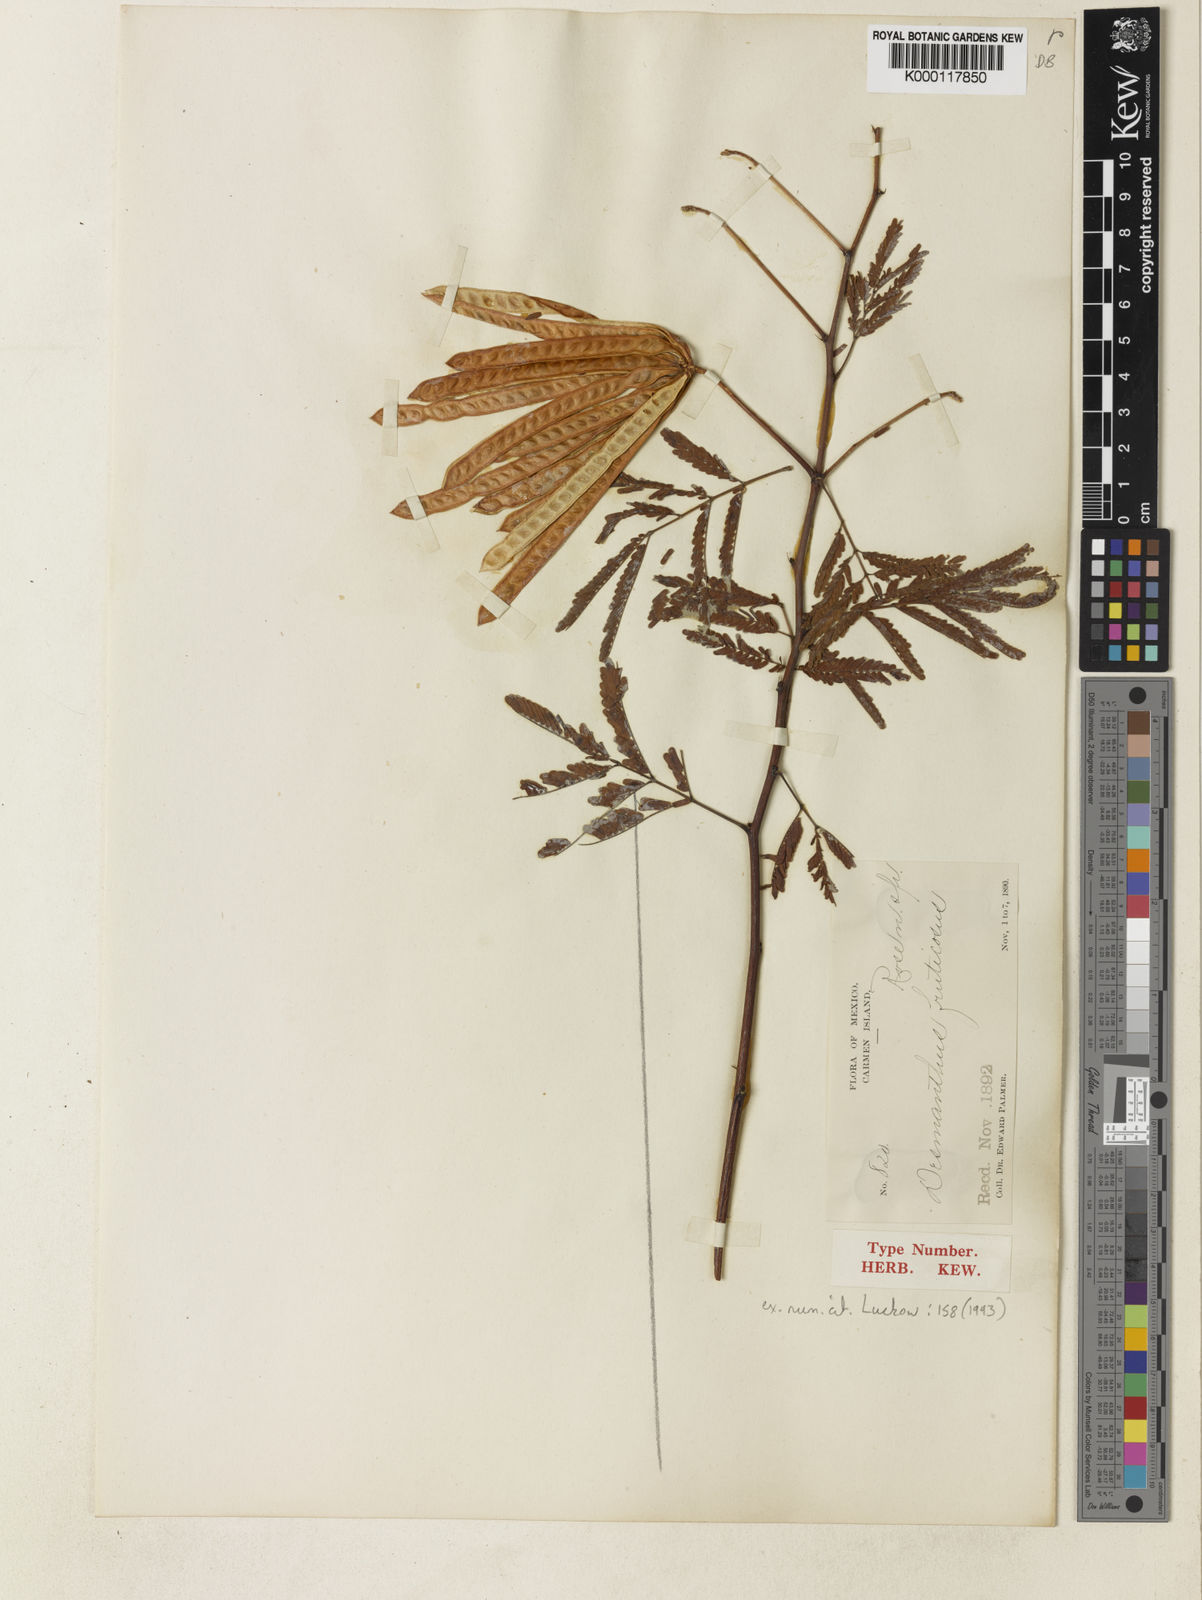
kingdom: Plantae
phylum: Tracheophyta
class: Magnoliopsida
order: Fabales
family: Fabaceae
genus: Desmanthus
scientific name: Desmanthus
